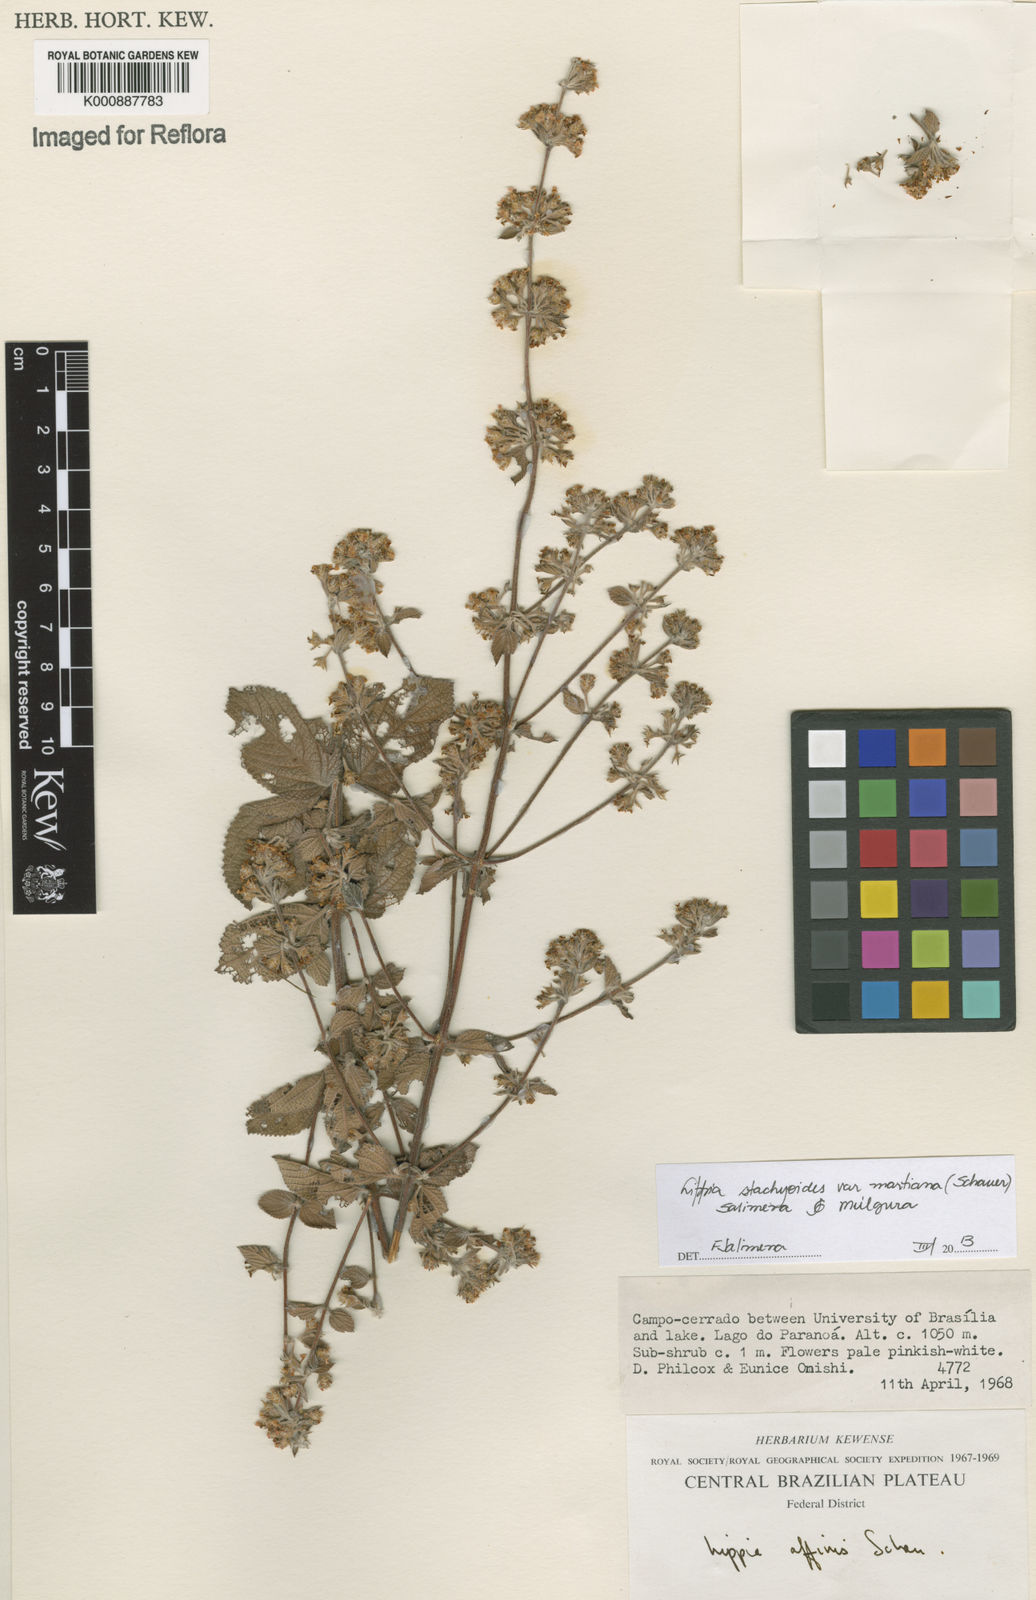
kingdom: Plantae
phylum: Tracheophyta
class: Magnoliopsida
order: Lamiales
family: Verbenaceae
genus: Lippia
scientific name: Lippia stachyoides
